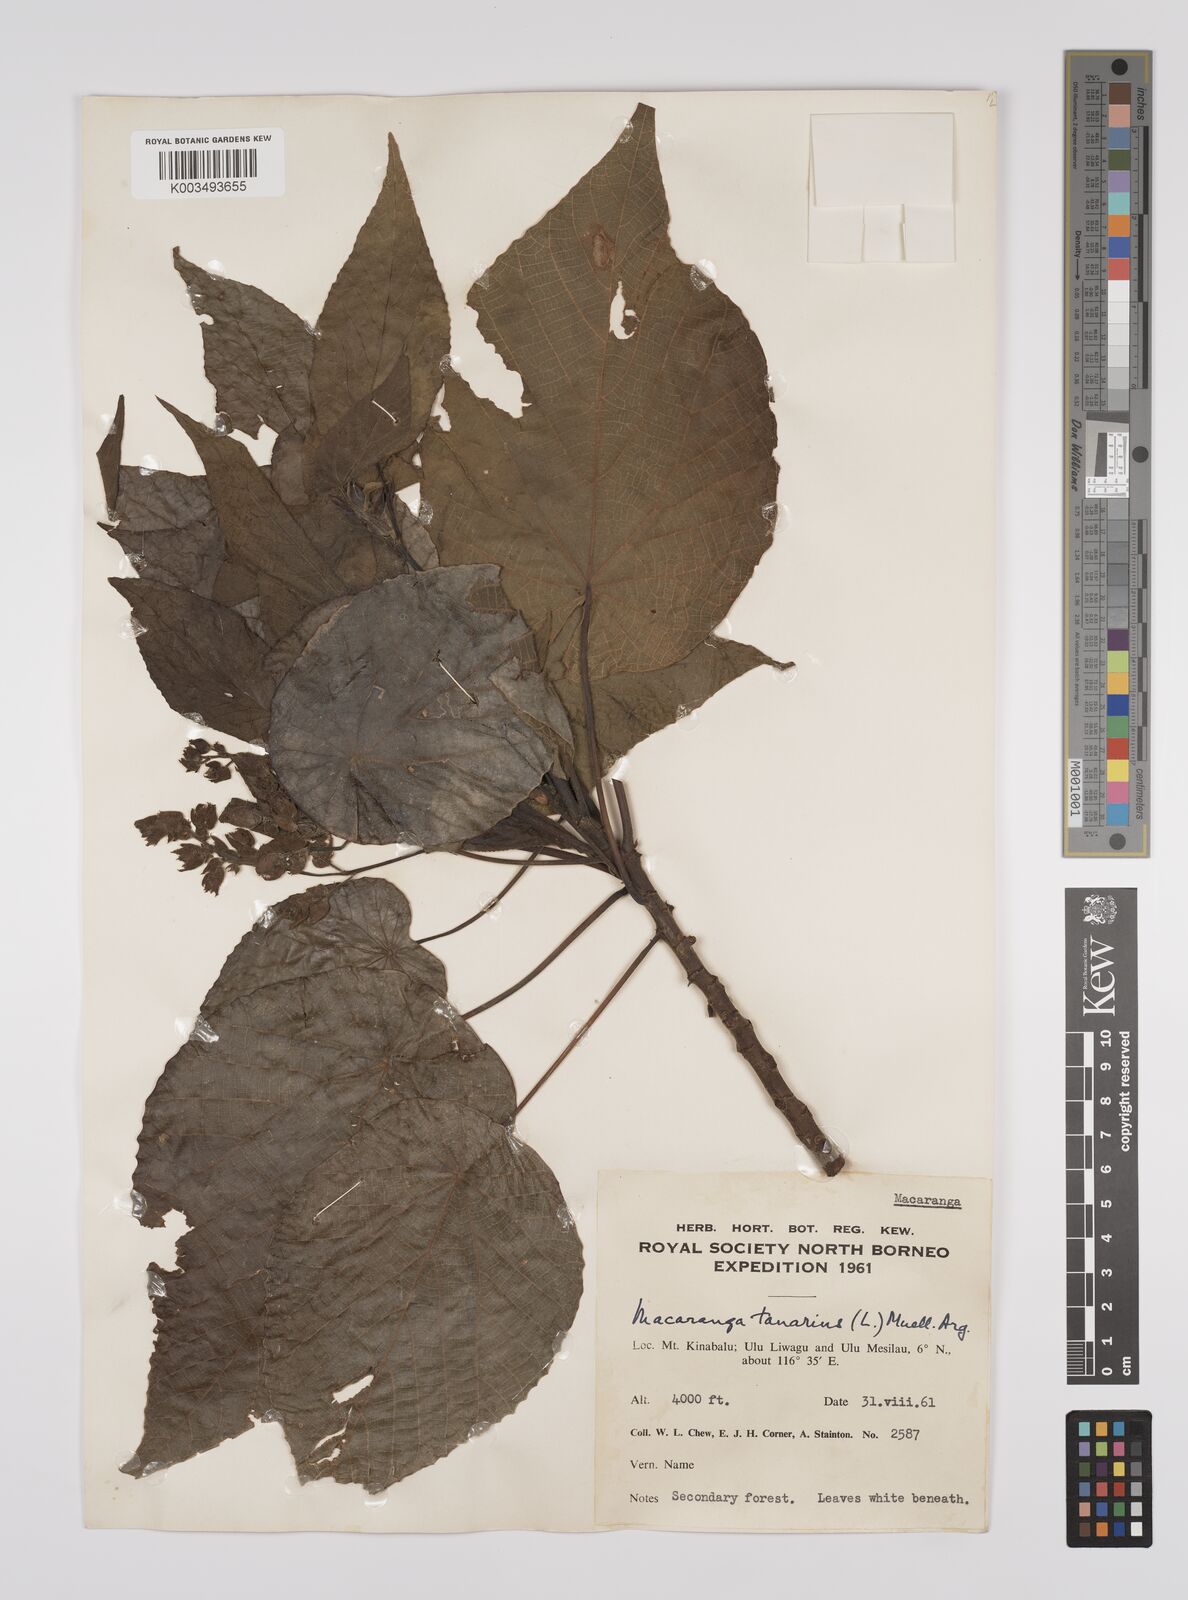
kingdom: Plantae
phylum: Tracheophyta
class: Magnoliopsida
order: Malpighiales
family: Euphorbiaceae
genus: Macaranga
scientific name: Macaranga tanarius
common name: Parasol leaf tree
